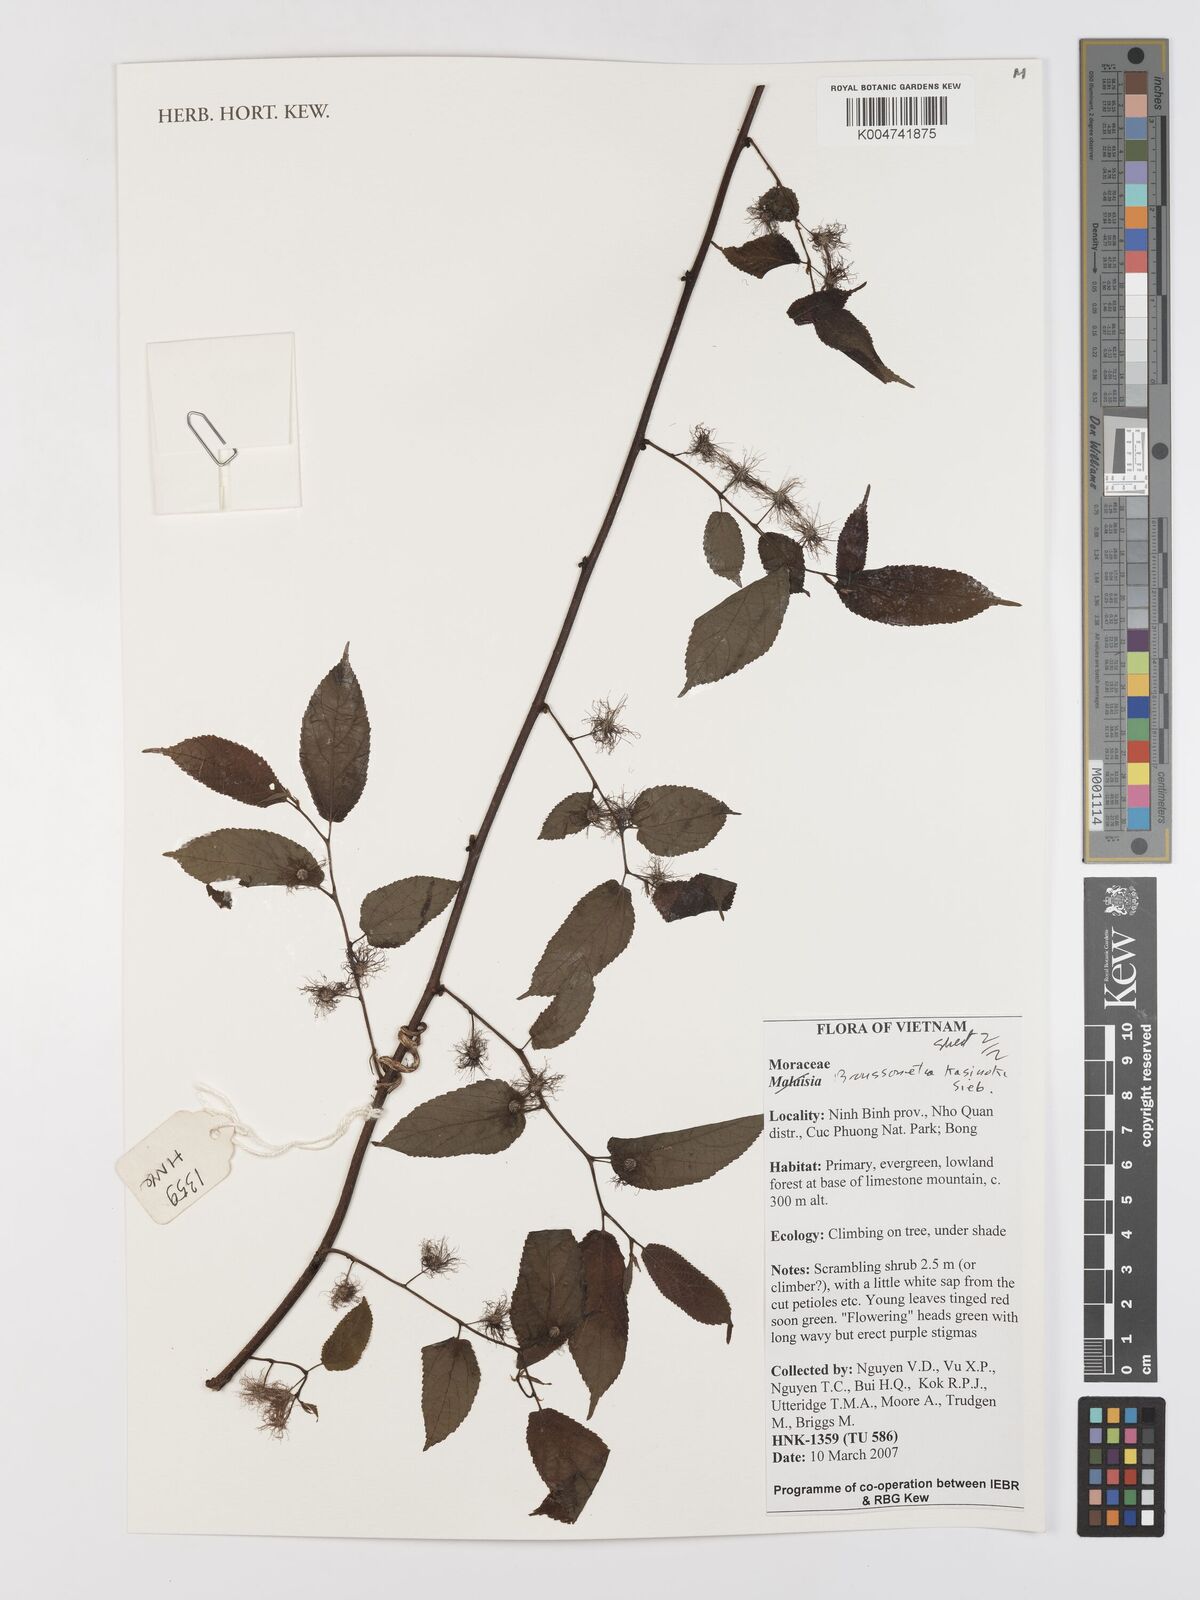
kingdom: Plantae
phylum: Tracheophyta
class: Magnoliopsida
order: Rosales
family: Moraceae
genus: Broussonetia
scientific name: Broussonetia kazinoki
